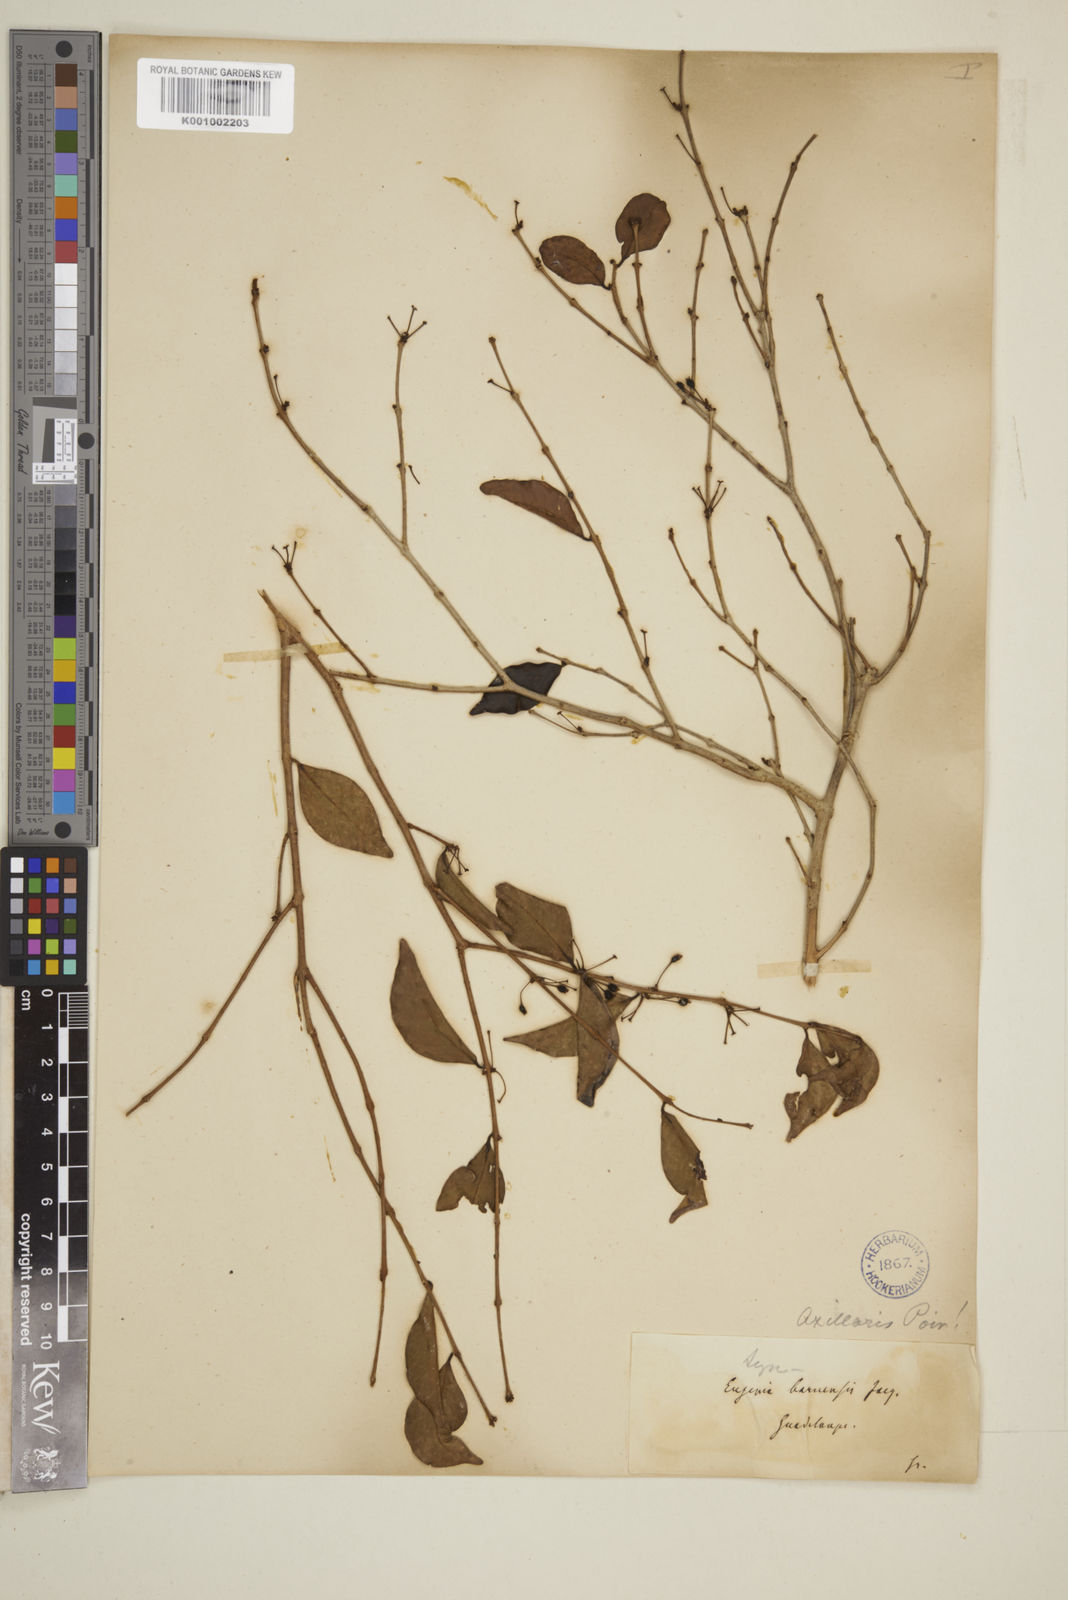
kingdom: Plantae
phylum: Tracheophyta
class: Magnoliopsida
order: Myrtales
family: Myrtaceae
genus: Eugenia
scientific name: Eugenia axillaris
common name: Choaky berry
